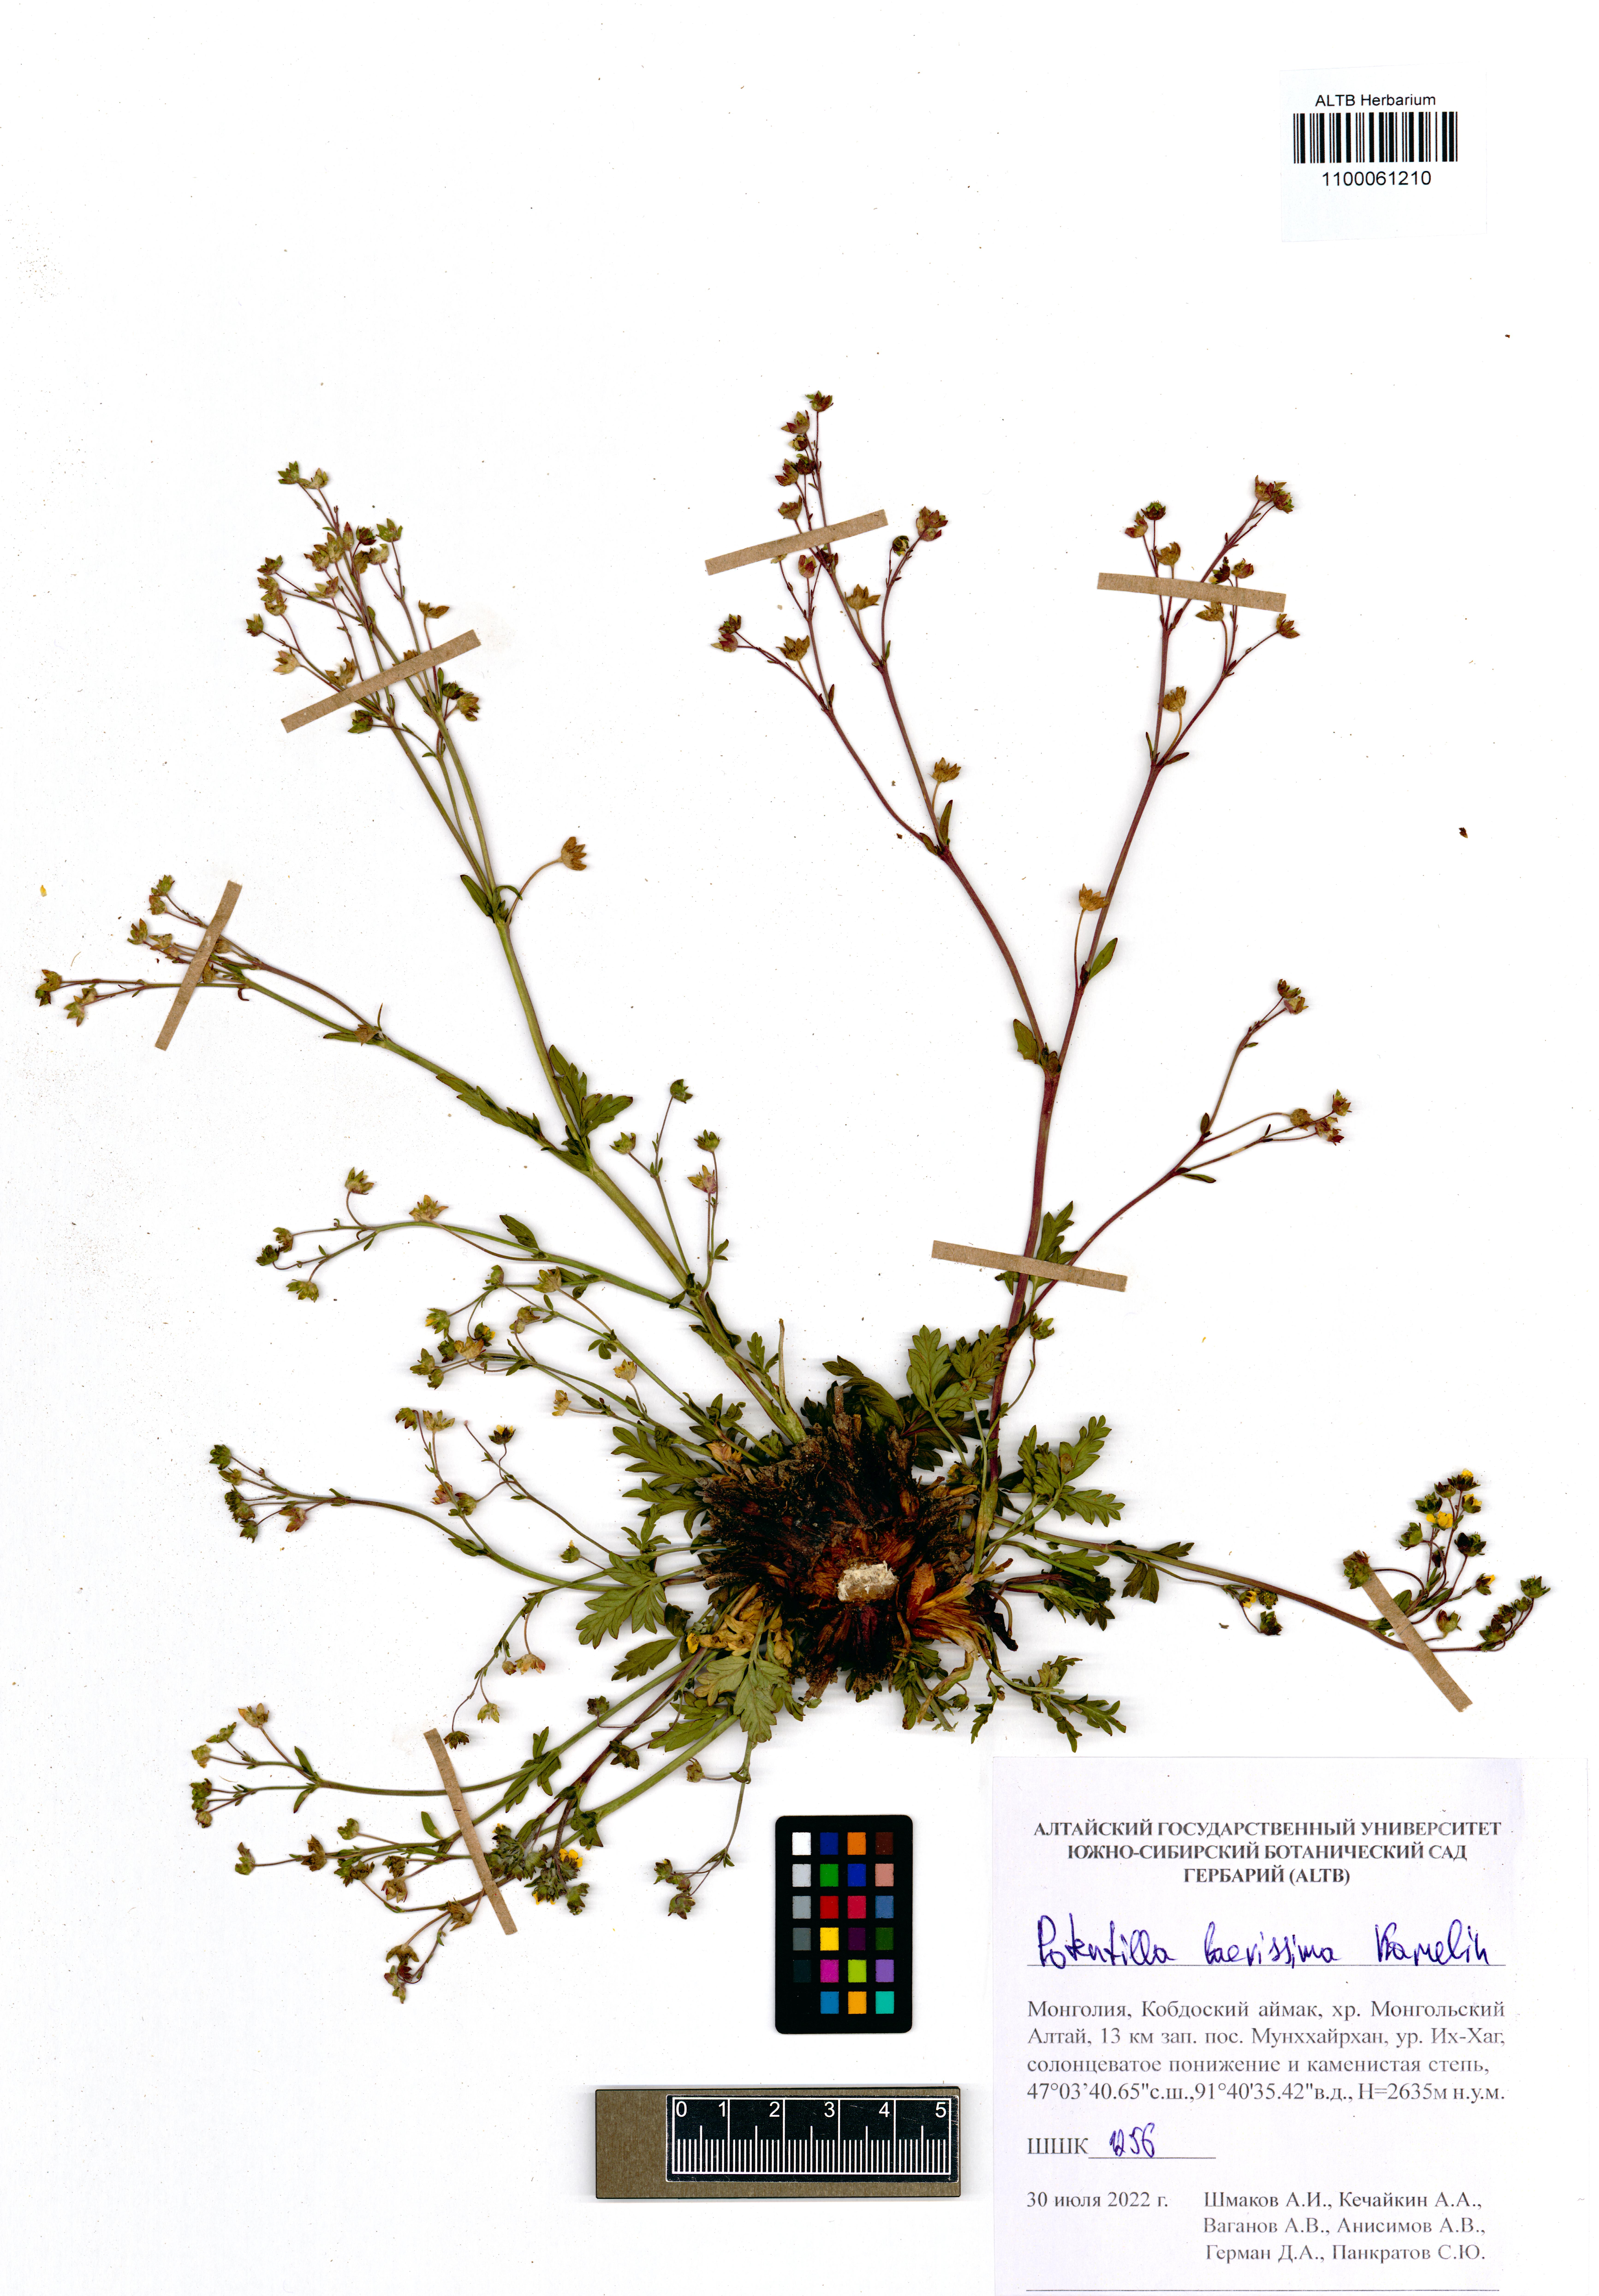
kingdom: Plantae
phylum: Tracheophyta
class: Magnoliopsida
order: Rosales
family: Rosaceae
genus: Potentilla
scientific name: Potentilla laevissima
